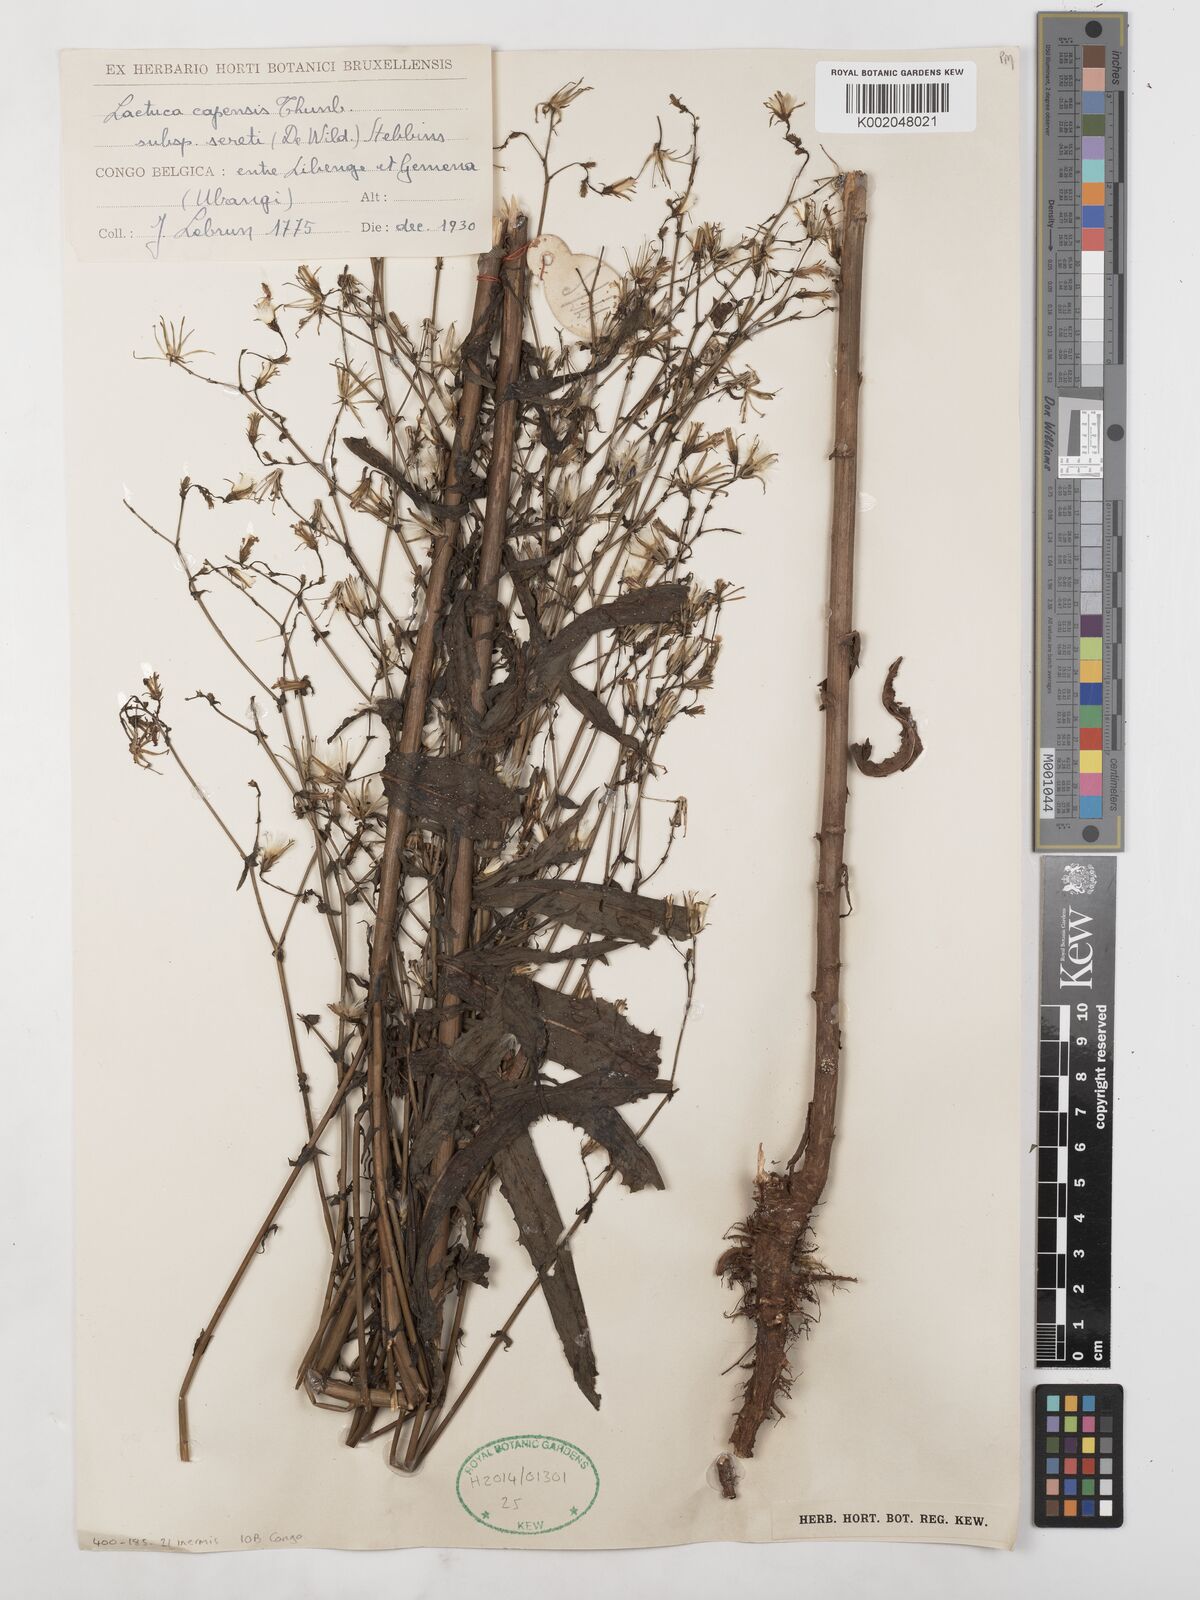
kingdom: Plantae
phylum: Tracheophyta
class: Magnoliopsida
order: Asterales
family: Asteraceae
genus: Lactuca
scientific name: Lactuca inermis
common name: Wild lettuce
